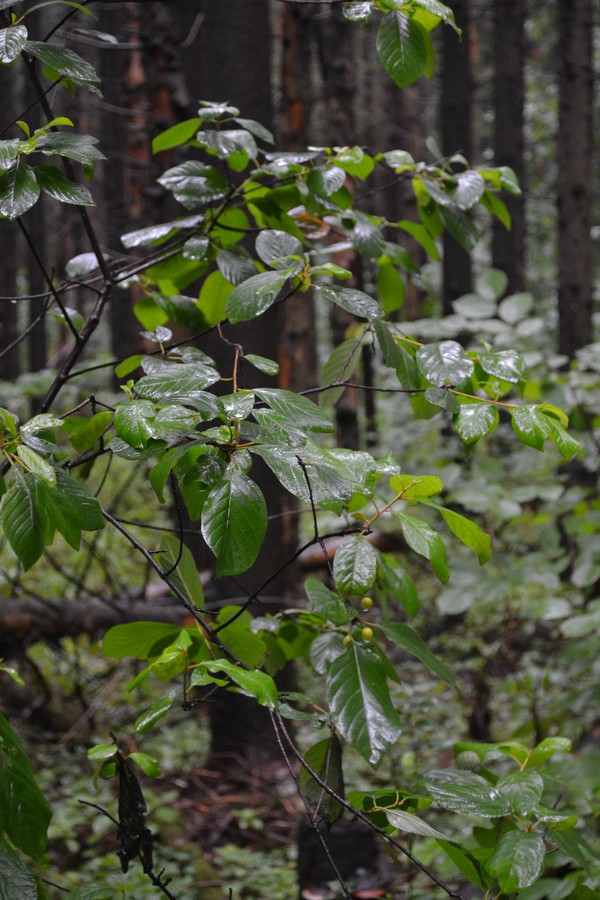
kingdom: Plantae
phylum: Tracheophyta
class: Magnoliopsida
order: Rosales
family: Rhamnaceae
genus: Frangula
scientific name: Frangula alnus
